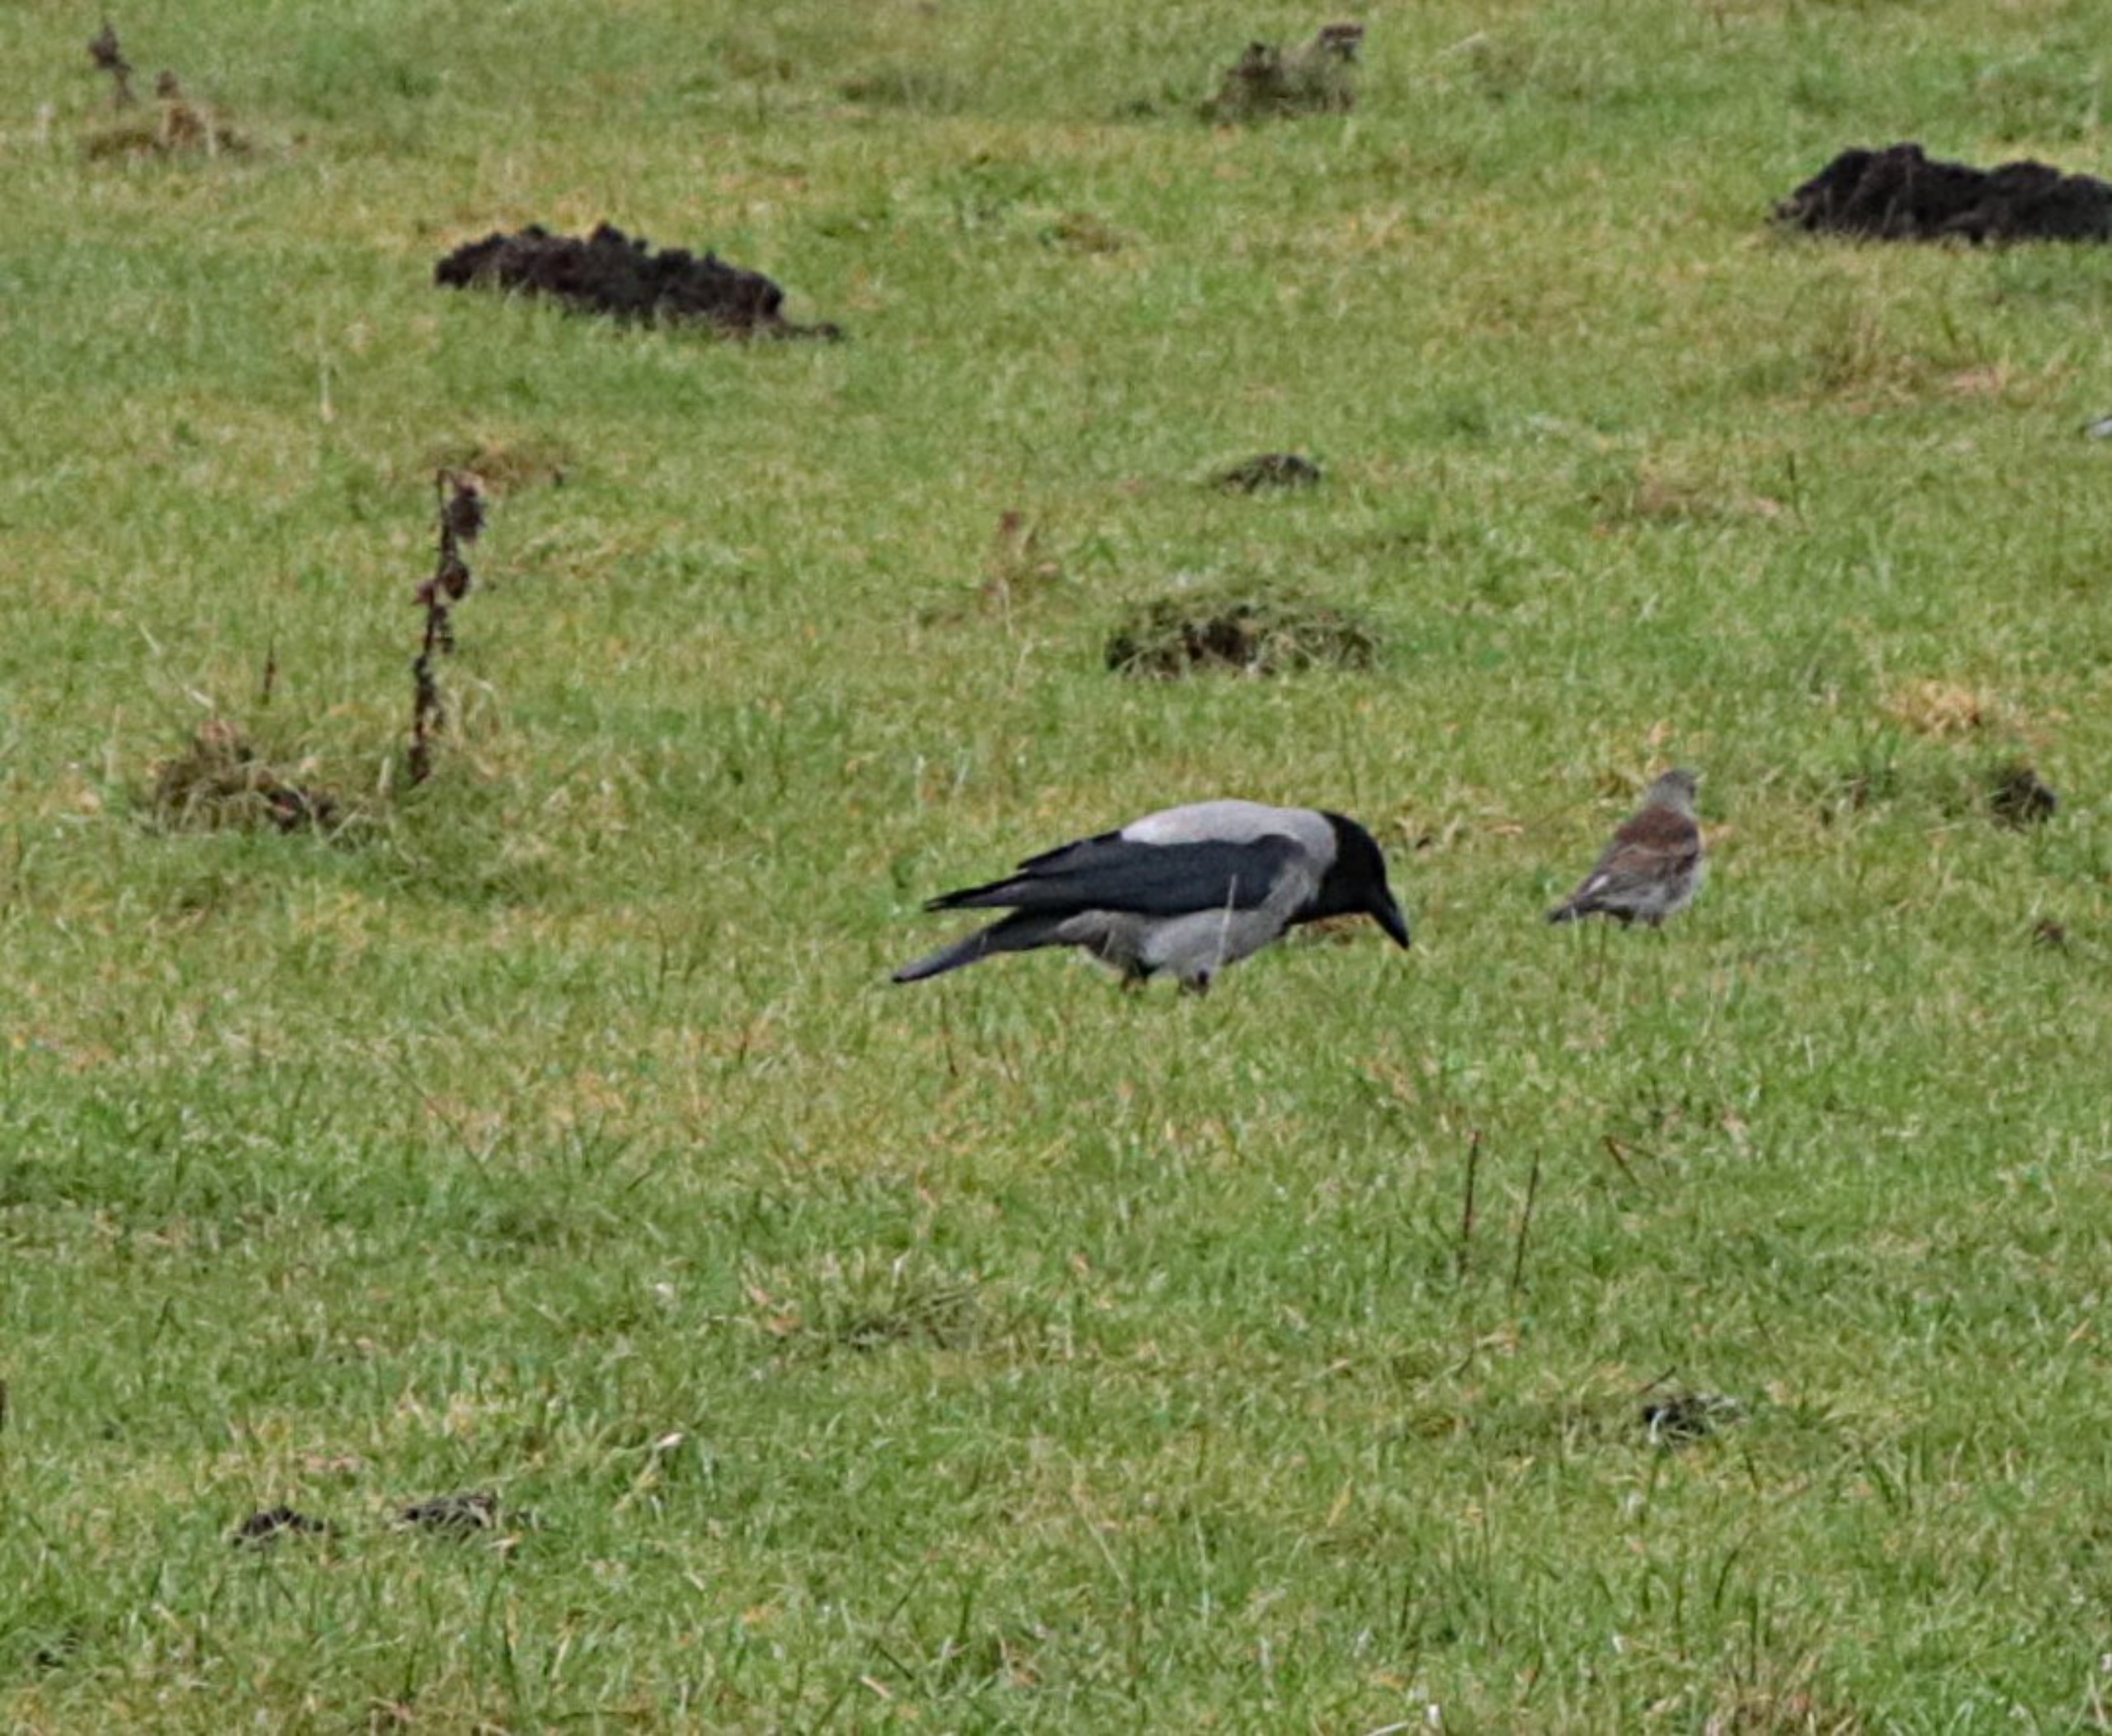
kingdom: Animalia
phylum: Chordata
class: Aves
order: Passeriformes
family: Corvidae
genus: Corvus
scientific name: Corvus cornix
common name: Gråkrage
